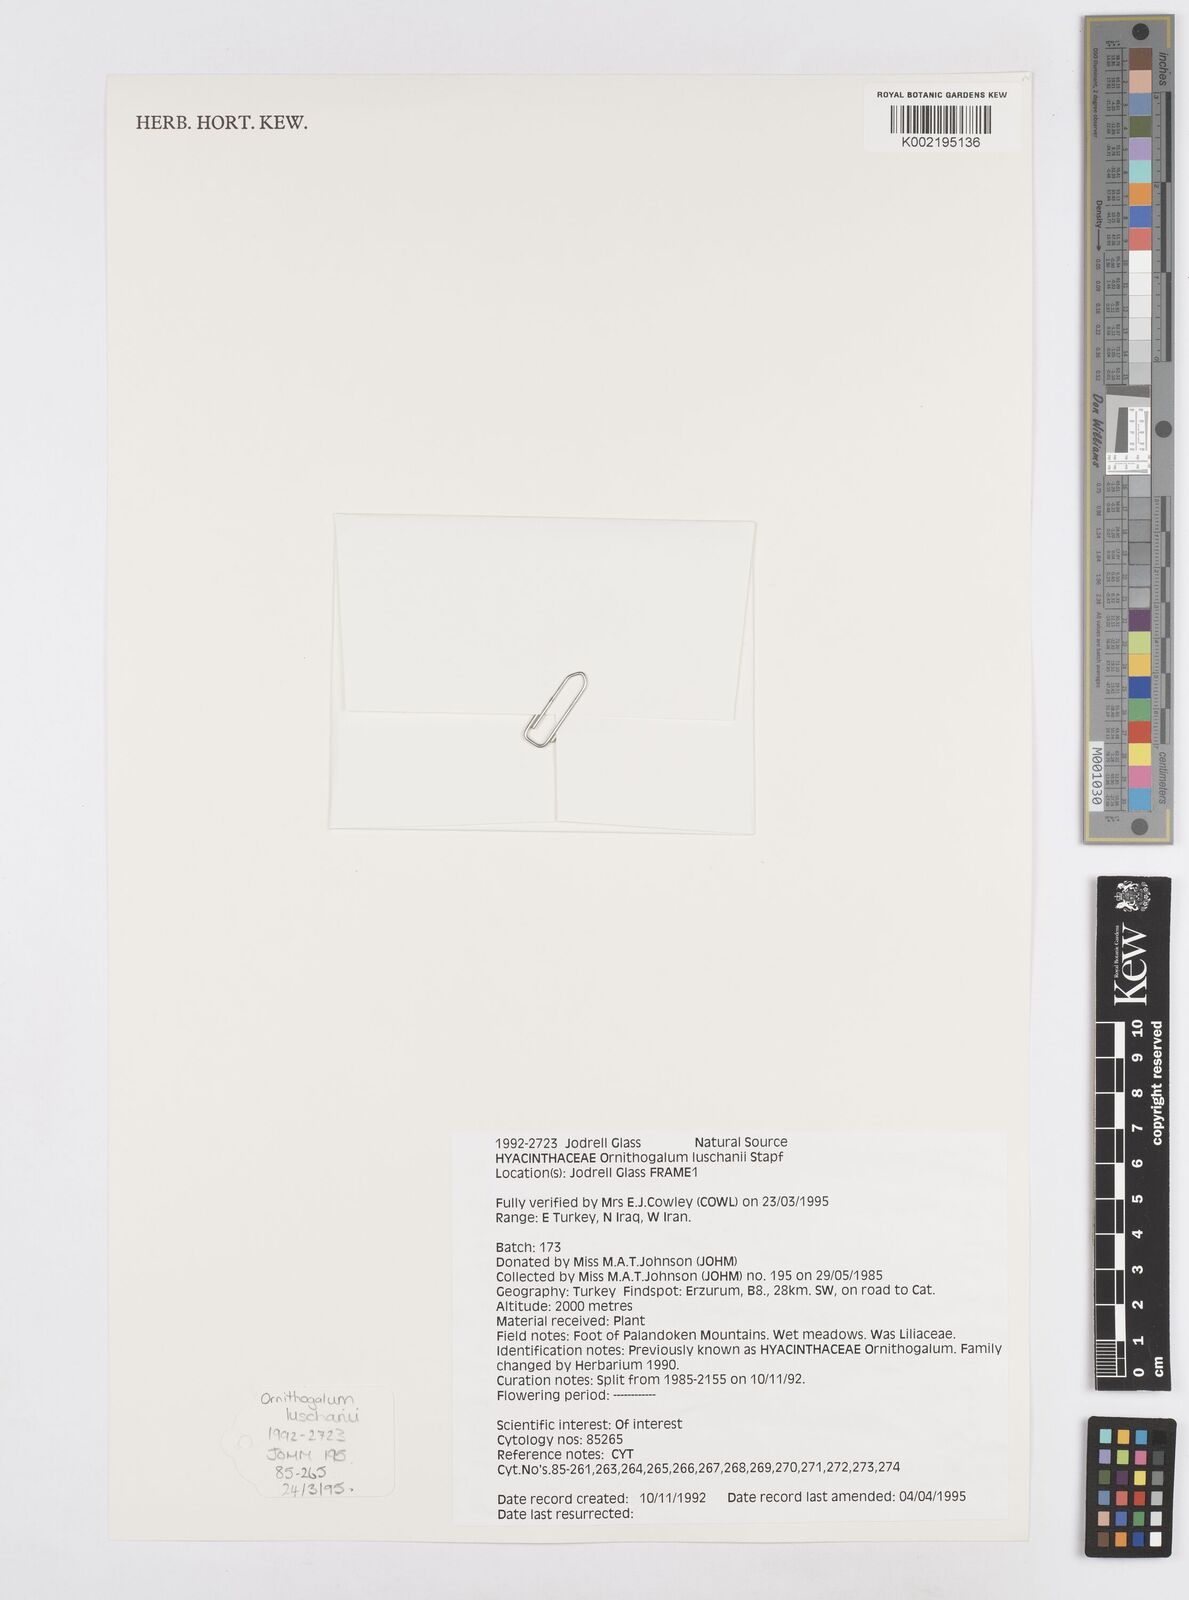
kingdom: Plantae
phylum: Tracheophyta
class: Liliopsida
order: Asparagales
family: Asparagaceae
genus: Ornithogalum
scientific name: Ornithogalum luschanii
